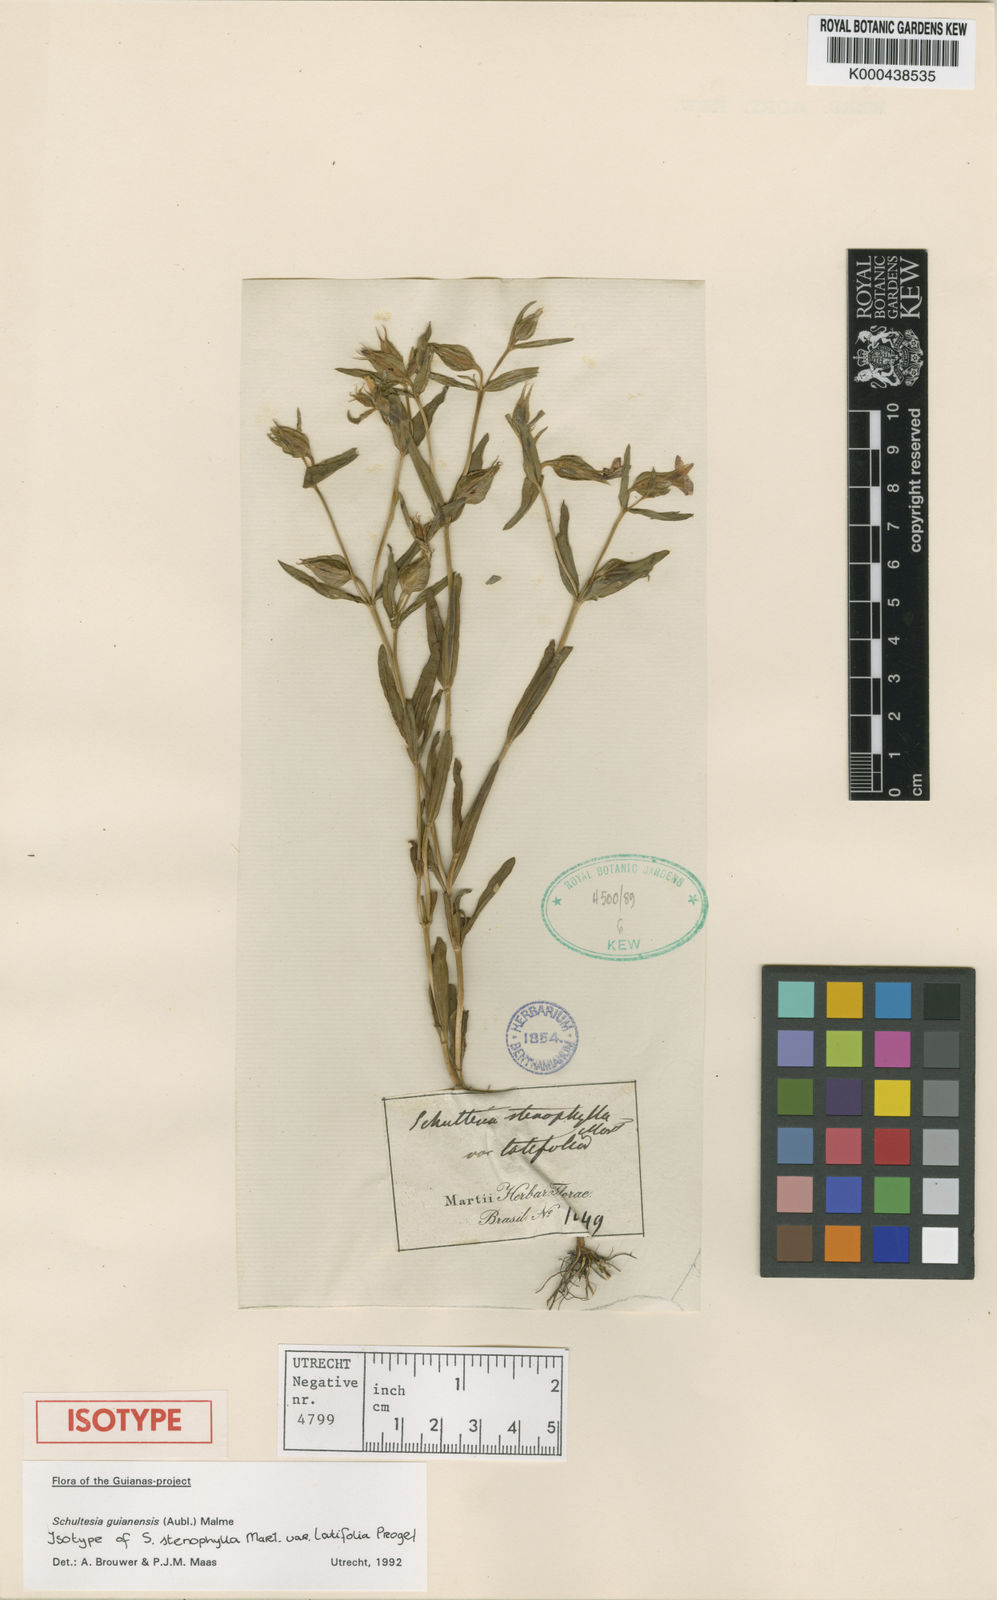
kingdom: Plantae
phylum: Tracheophyta
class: Magnoliopsida
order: Gentianales
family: Gentianaceae
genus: Schultesia
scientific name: Schultesia guianensis
